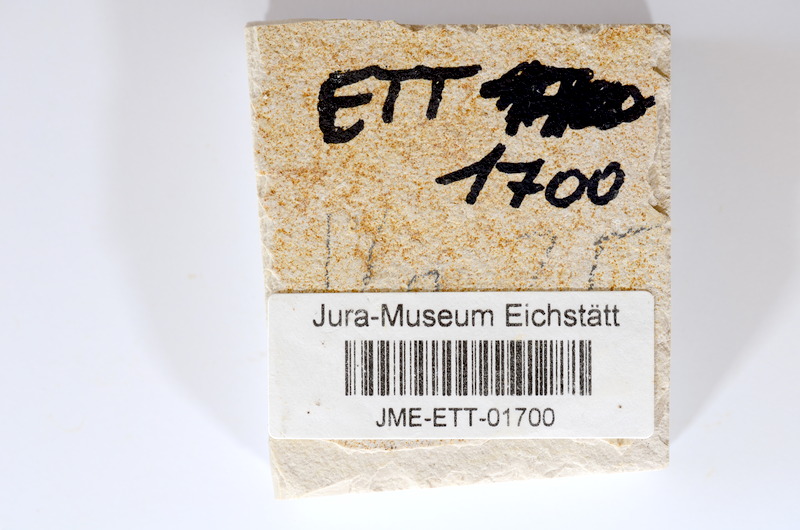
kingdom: Animalia
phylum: Chordata
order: Salmoniformes
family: Orthogonikleithridae
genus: Orthogonikleithrus
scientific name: Orthogonikleithrus hoelli
